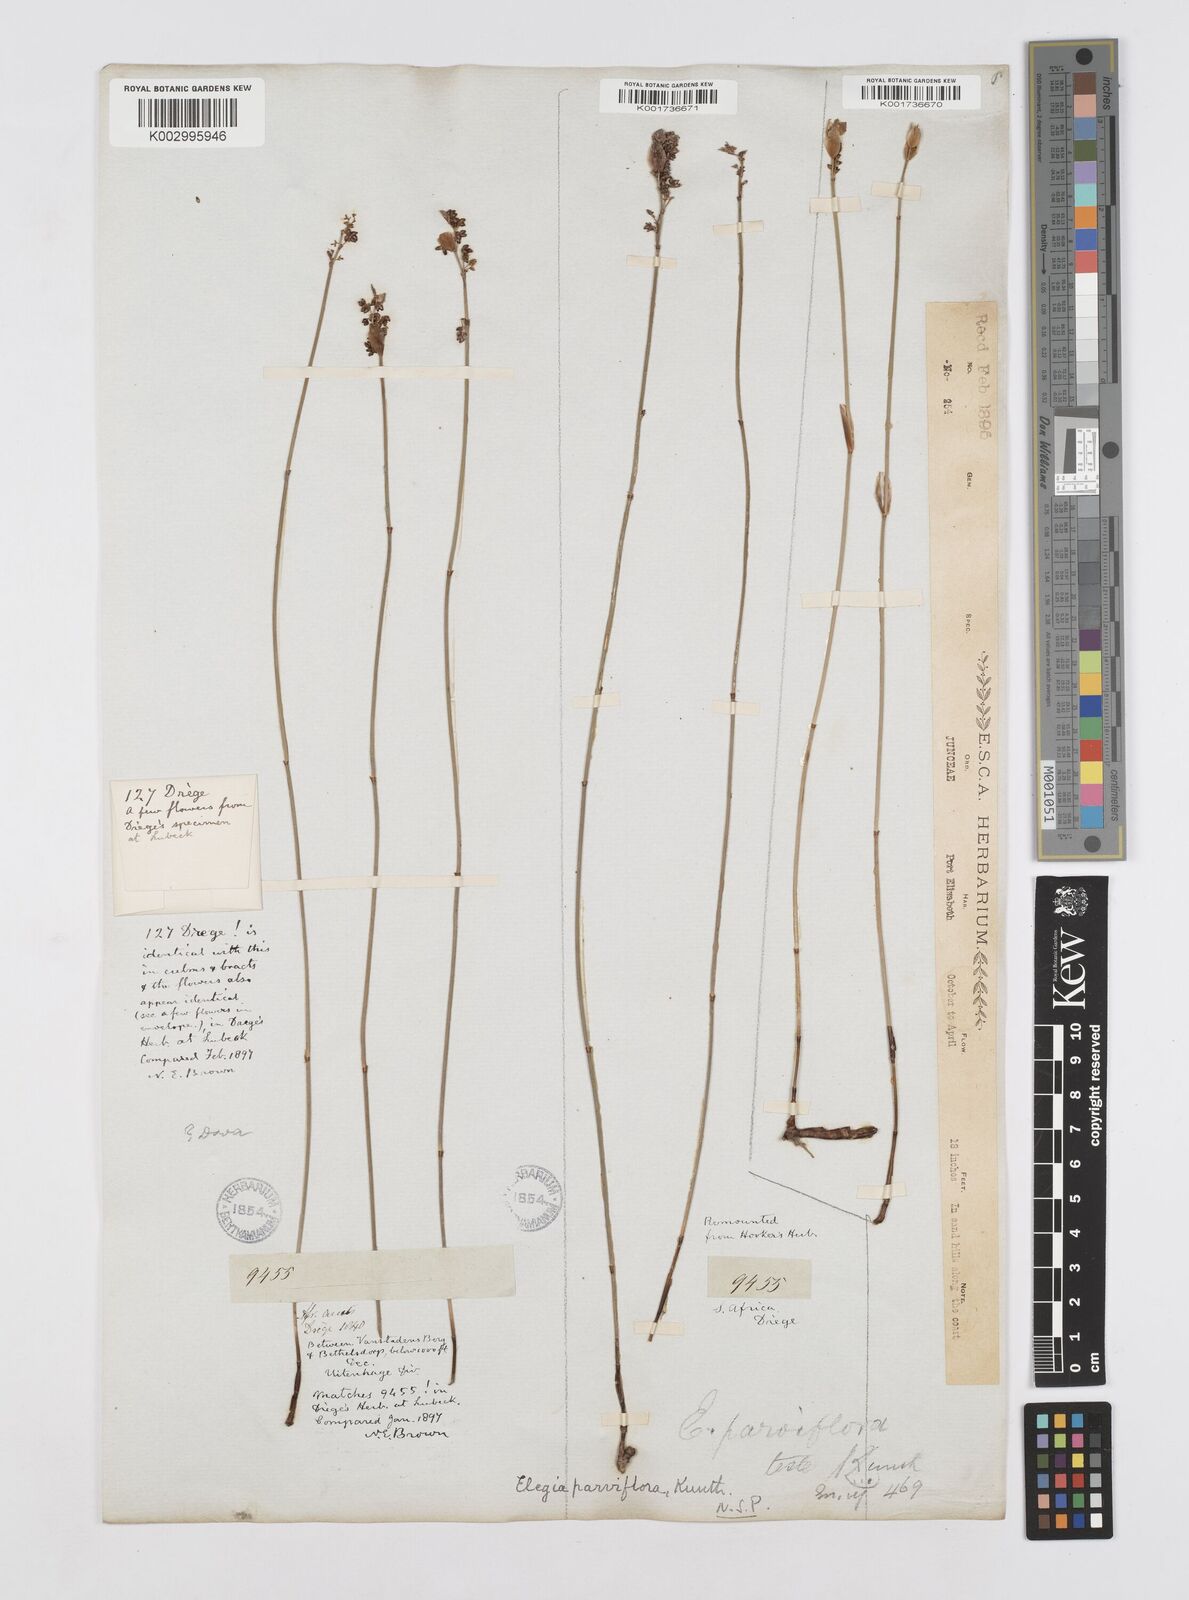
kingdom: Plantae
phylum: Tracheophyta
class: Liliopsida
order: Poales
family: Restionaceae
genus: Cannomois
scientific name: Cannomois parviflora
